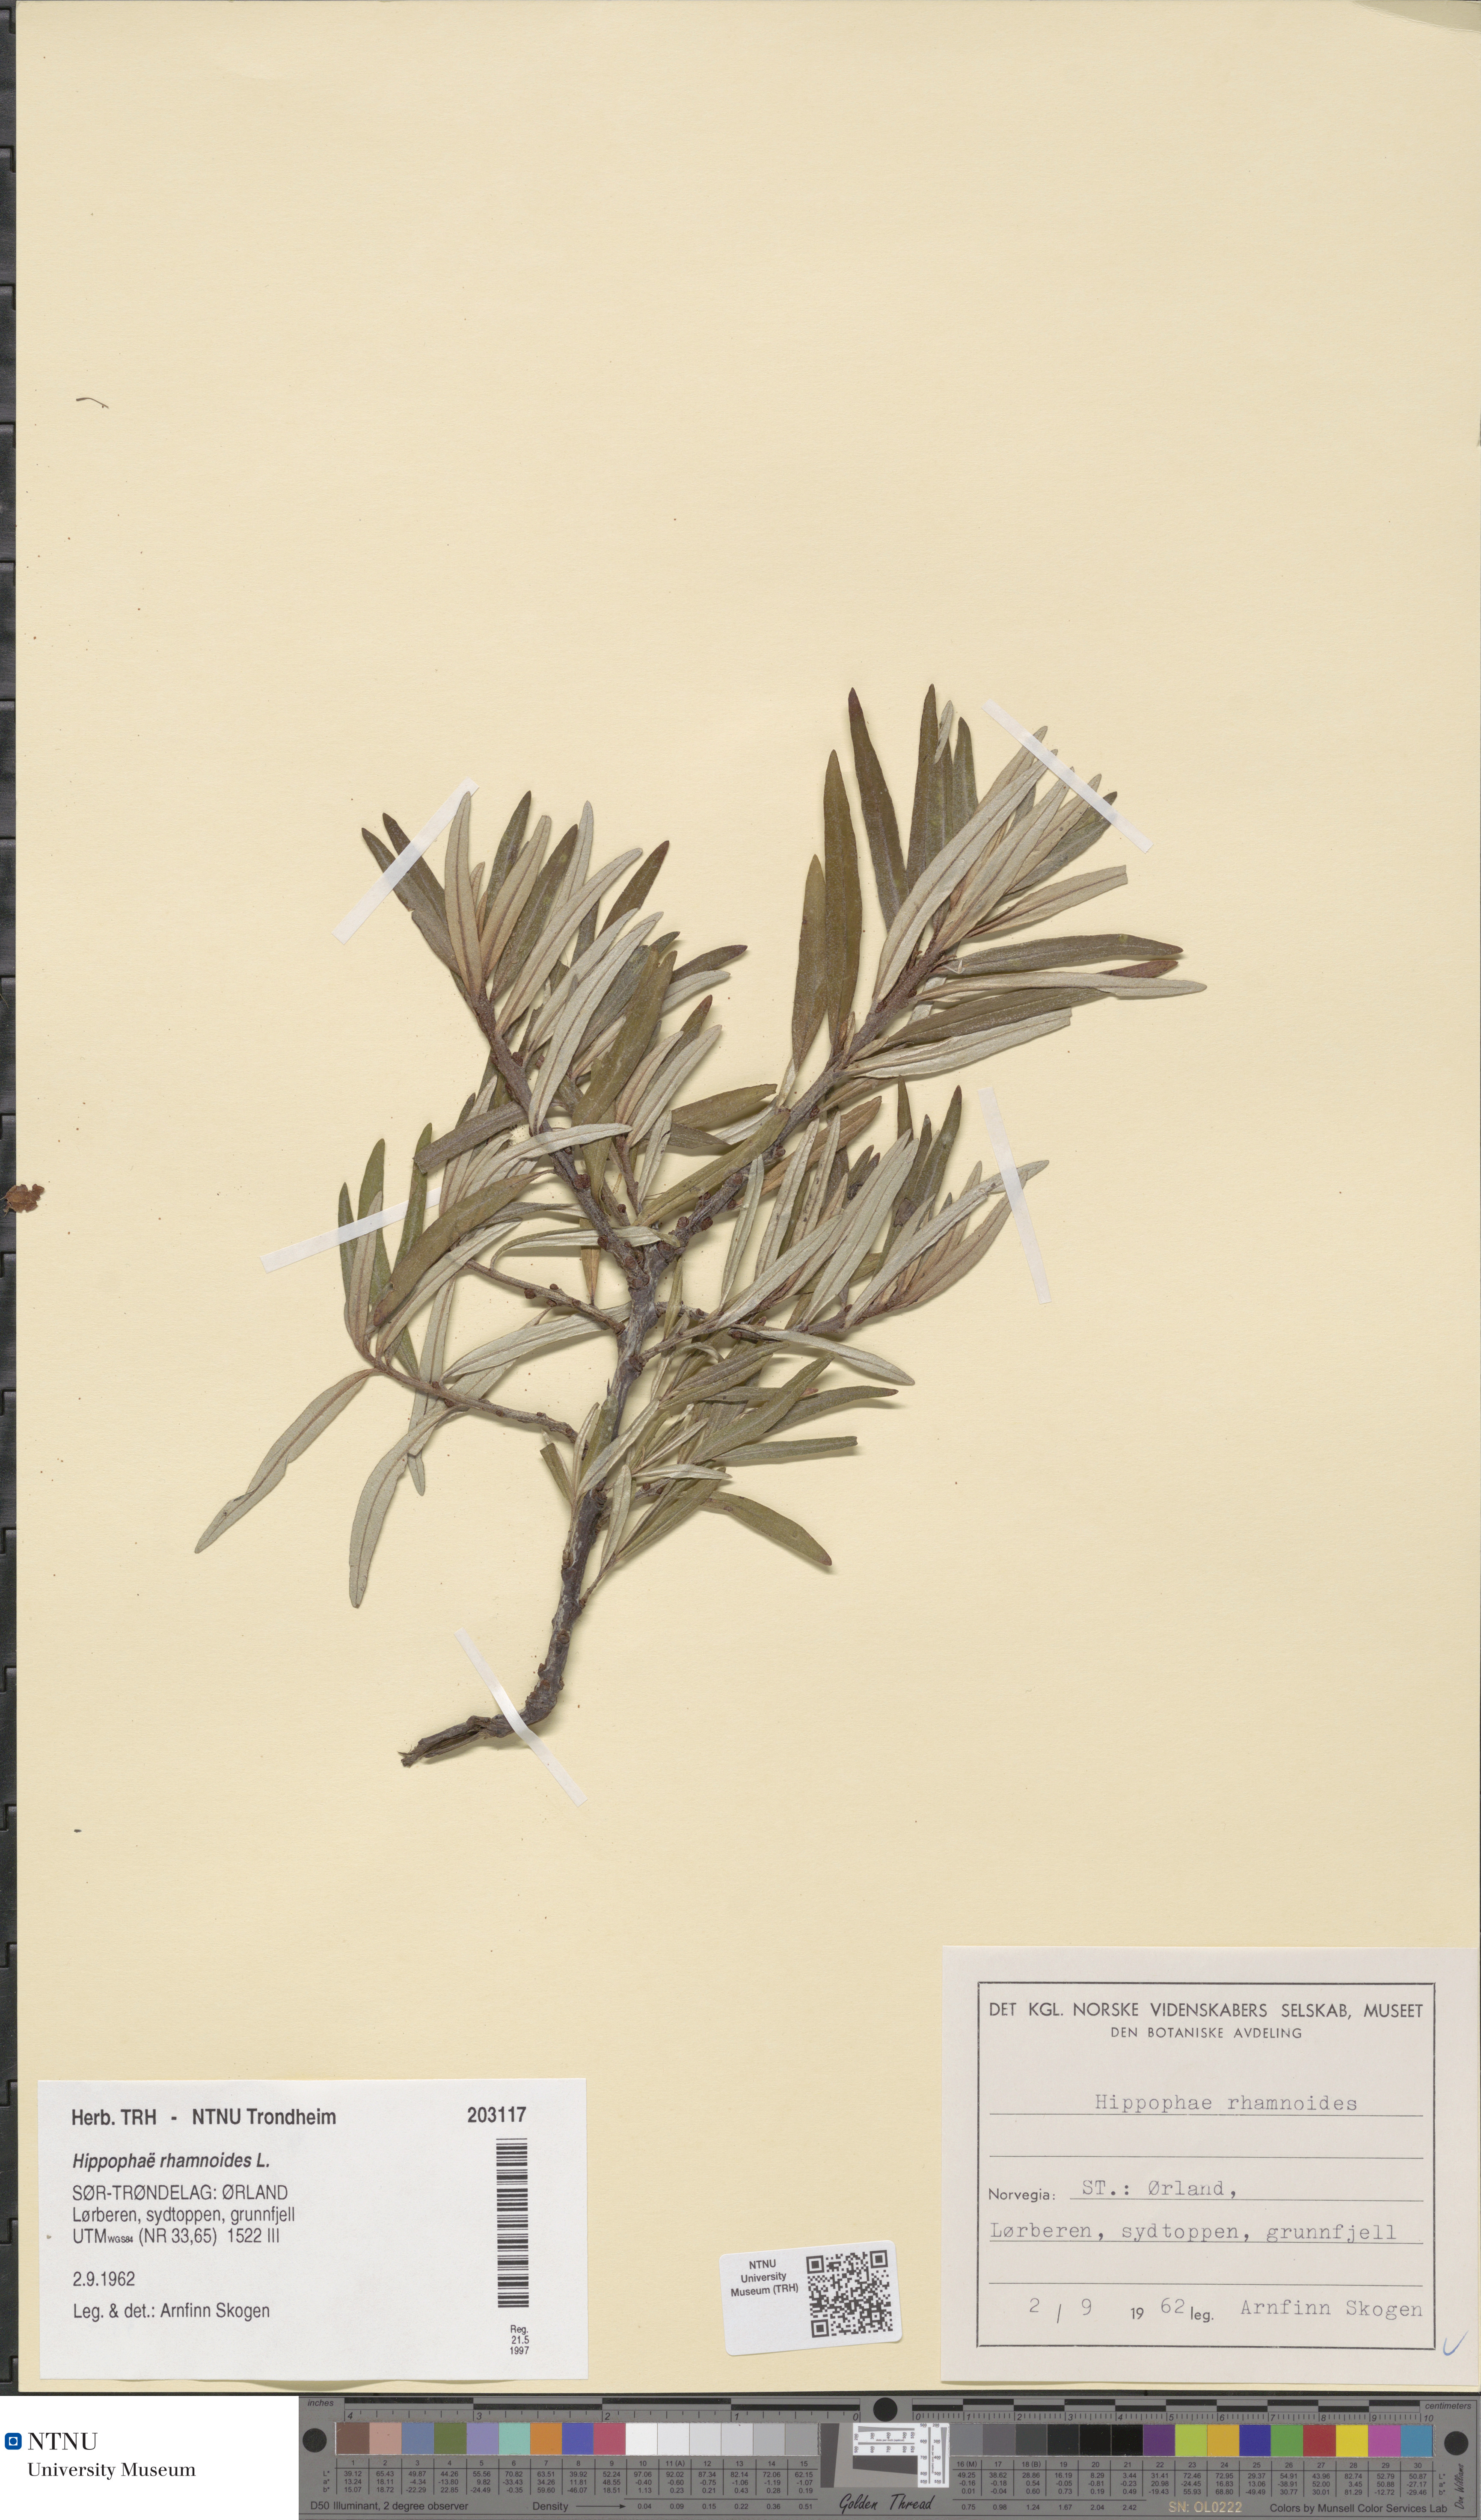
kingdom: Plantae
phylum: Tracheophyta
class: Magnoliopsida
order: Rosales
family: Elaeagnaceae
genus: Hippophae
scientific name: Hippophae rhamnoides
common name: Sea-buckthorn
